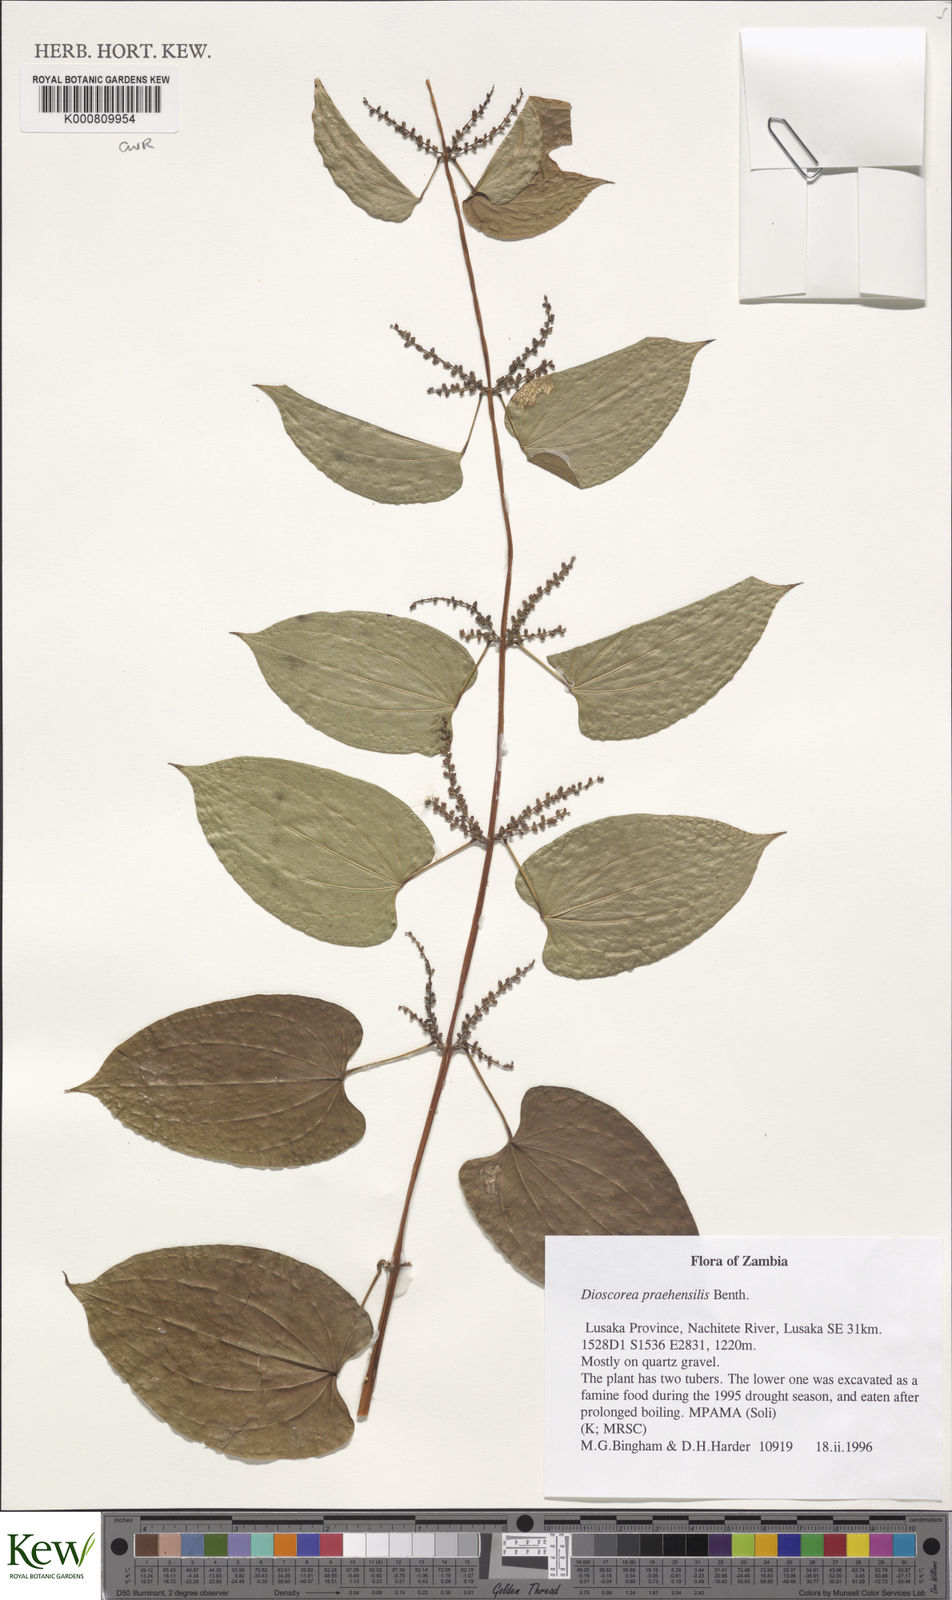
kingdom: Plantae
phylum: Tracheophyta
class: Liliopsida
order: Dioscoreales
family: Dioscoreaceae
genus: Dioscorea
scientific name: Dioscorea praehensilis
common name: Bush yam
